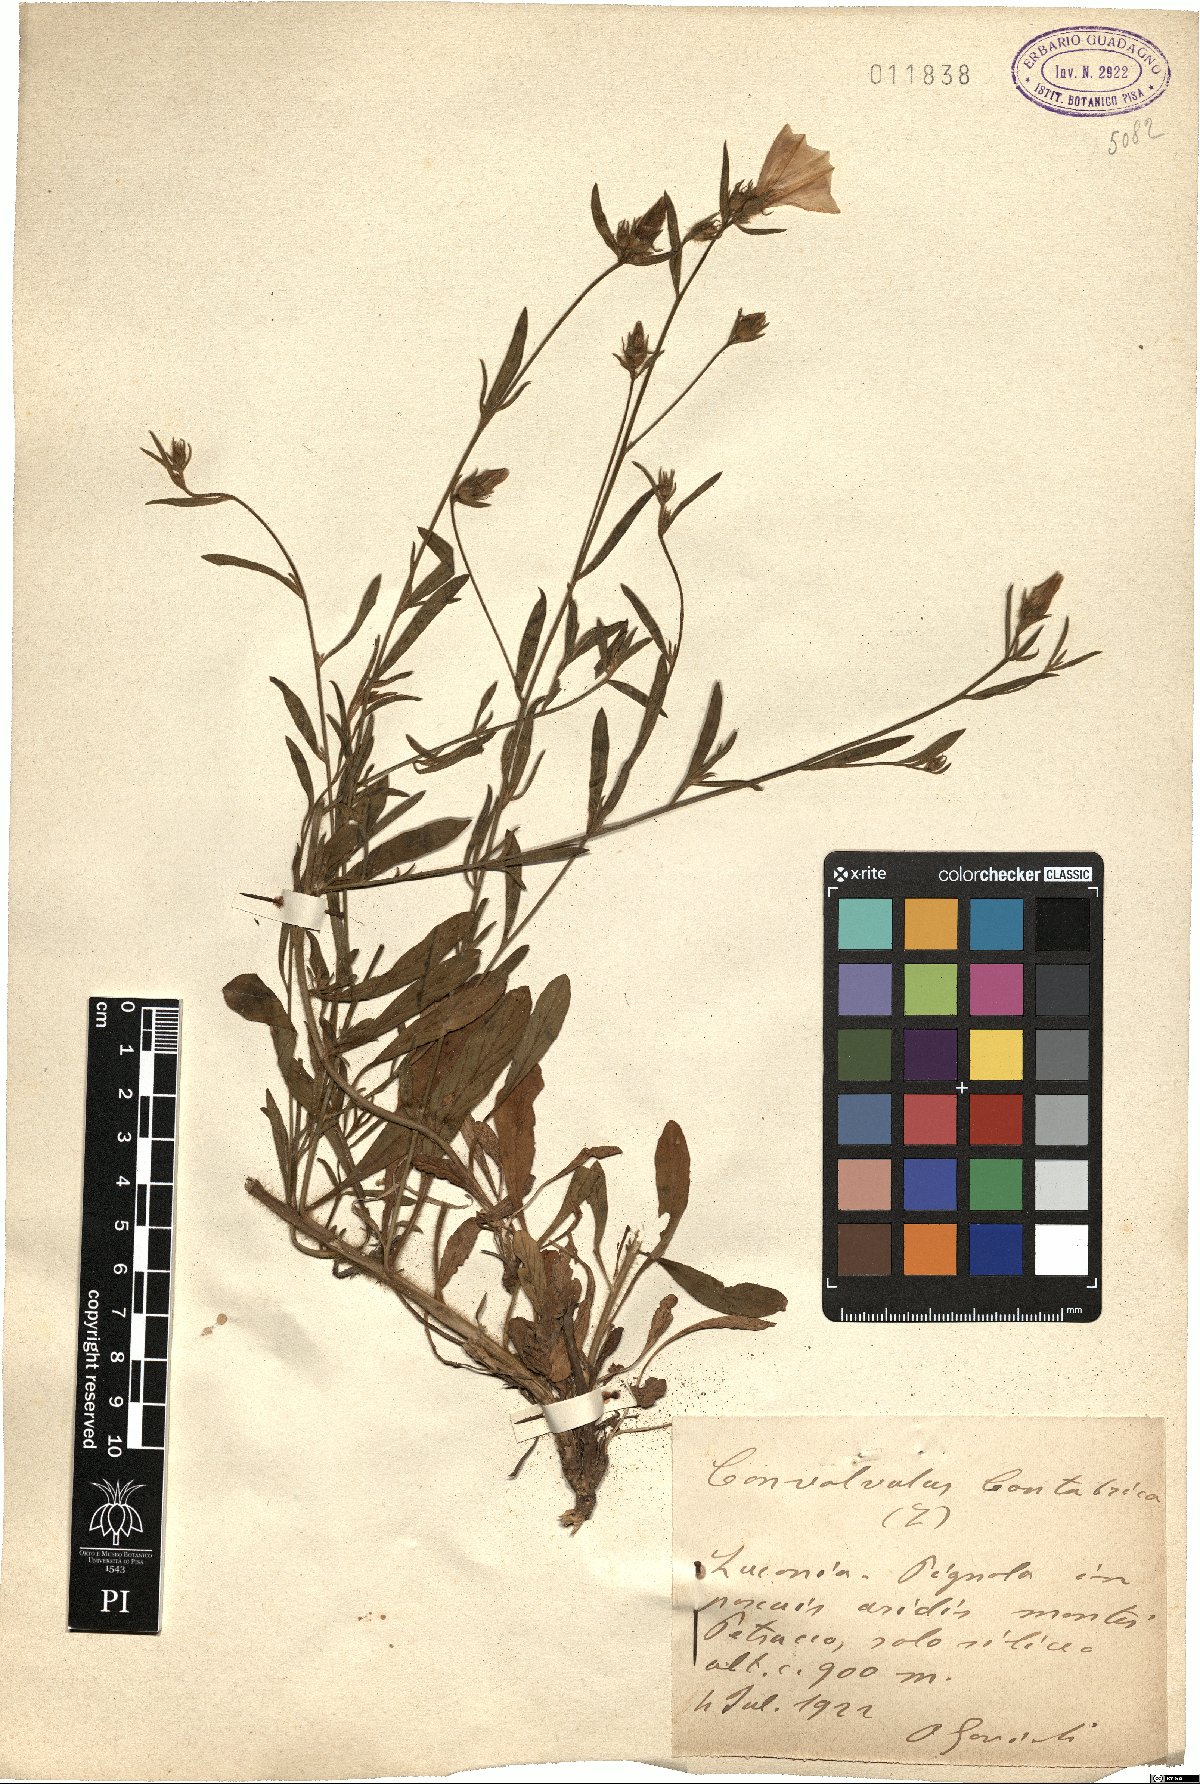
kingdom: Plantae
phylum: Tracheophyta
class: Magnoliopsida
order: Solanales
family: Convolvulaceae
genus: Convolvulus
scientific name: Convolvulus cantabrica
